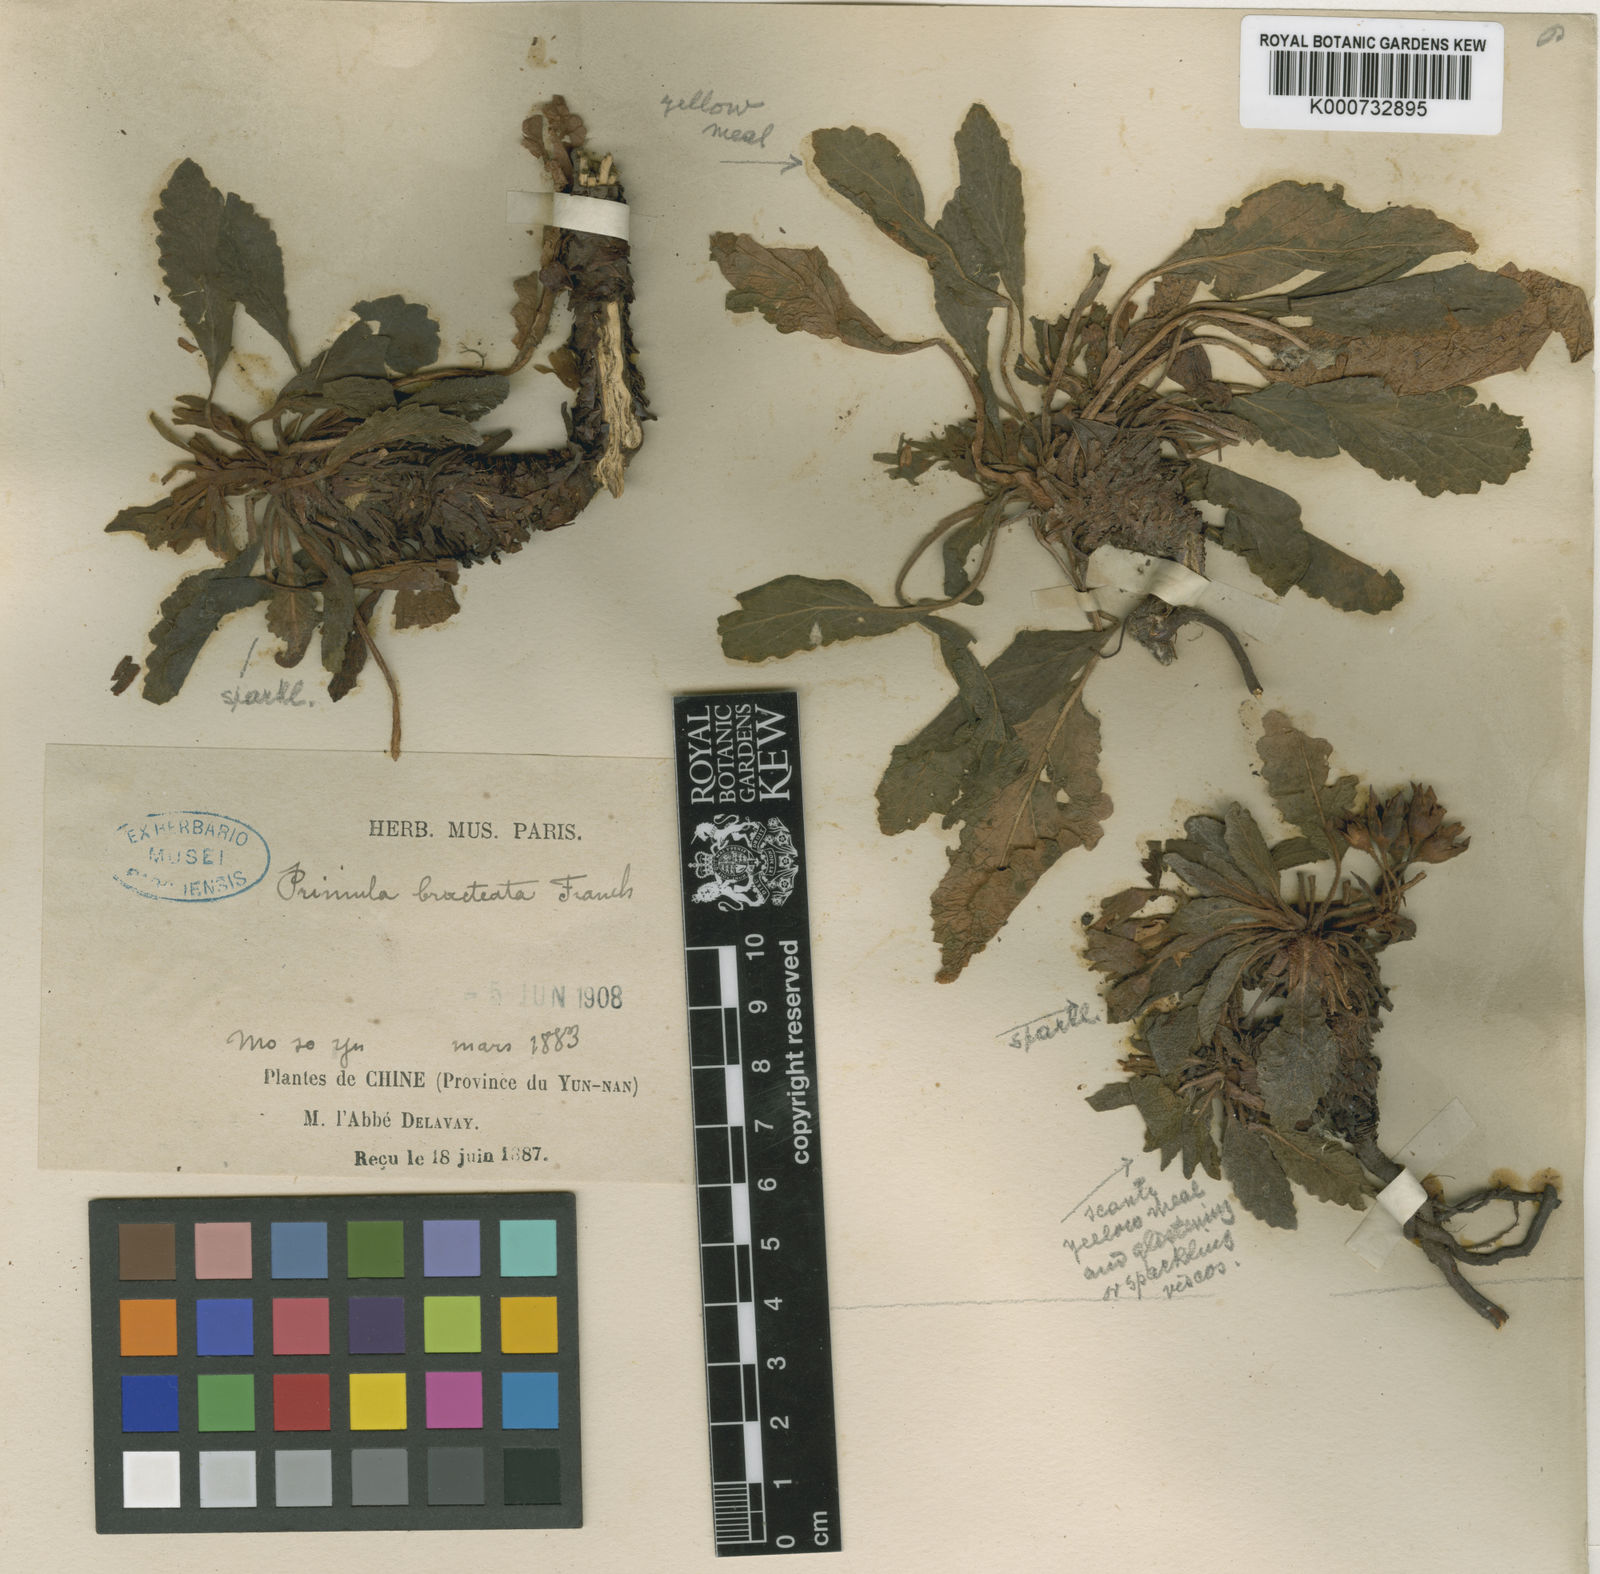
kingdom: Plantae
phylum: Tracheophyta
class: Magnoliopsida
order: Ericales
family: Primulaceae
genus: Primula
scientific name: Primula bullata
